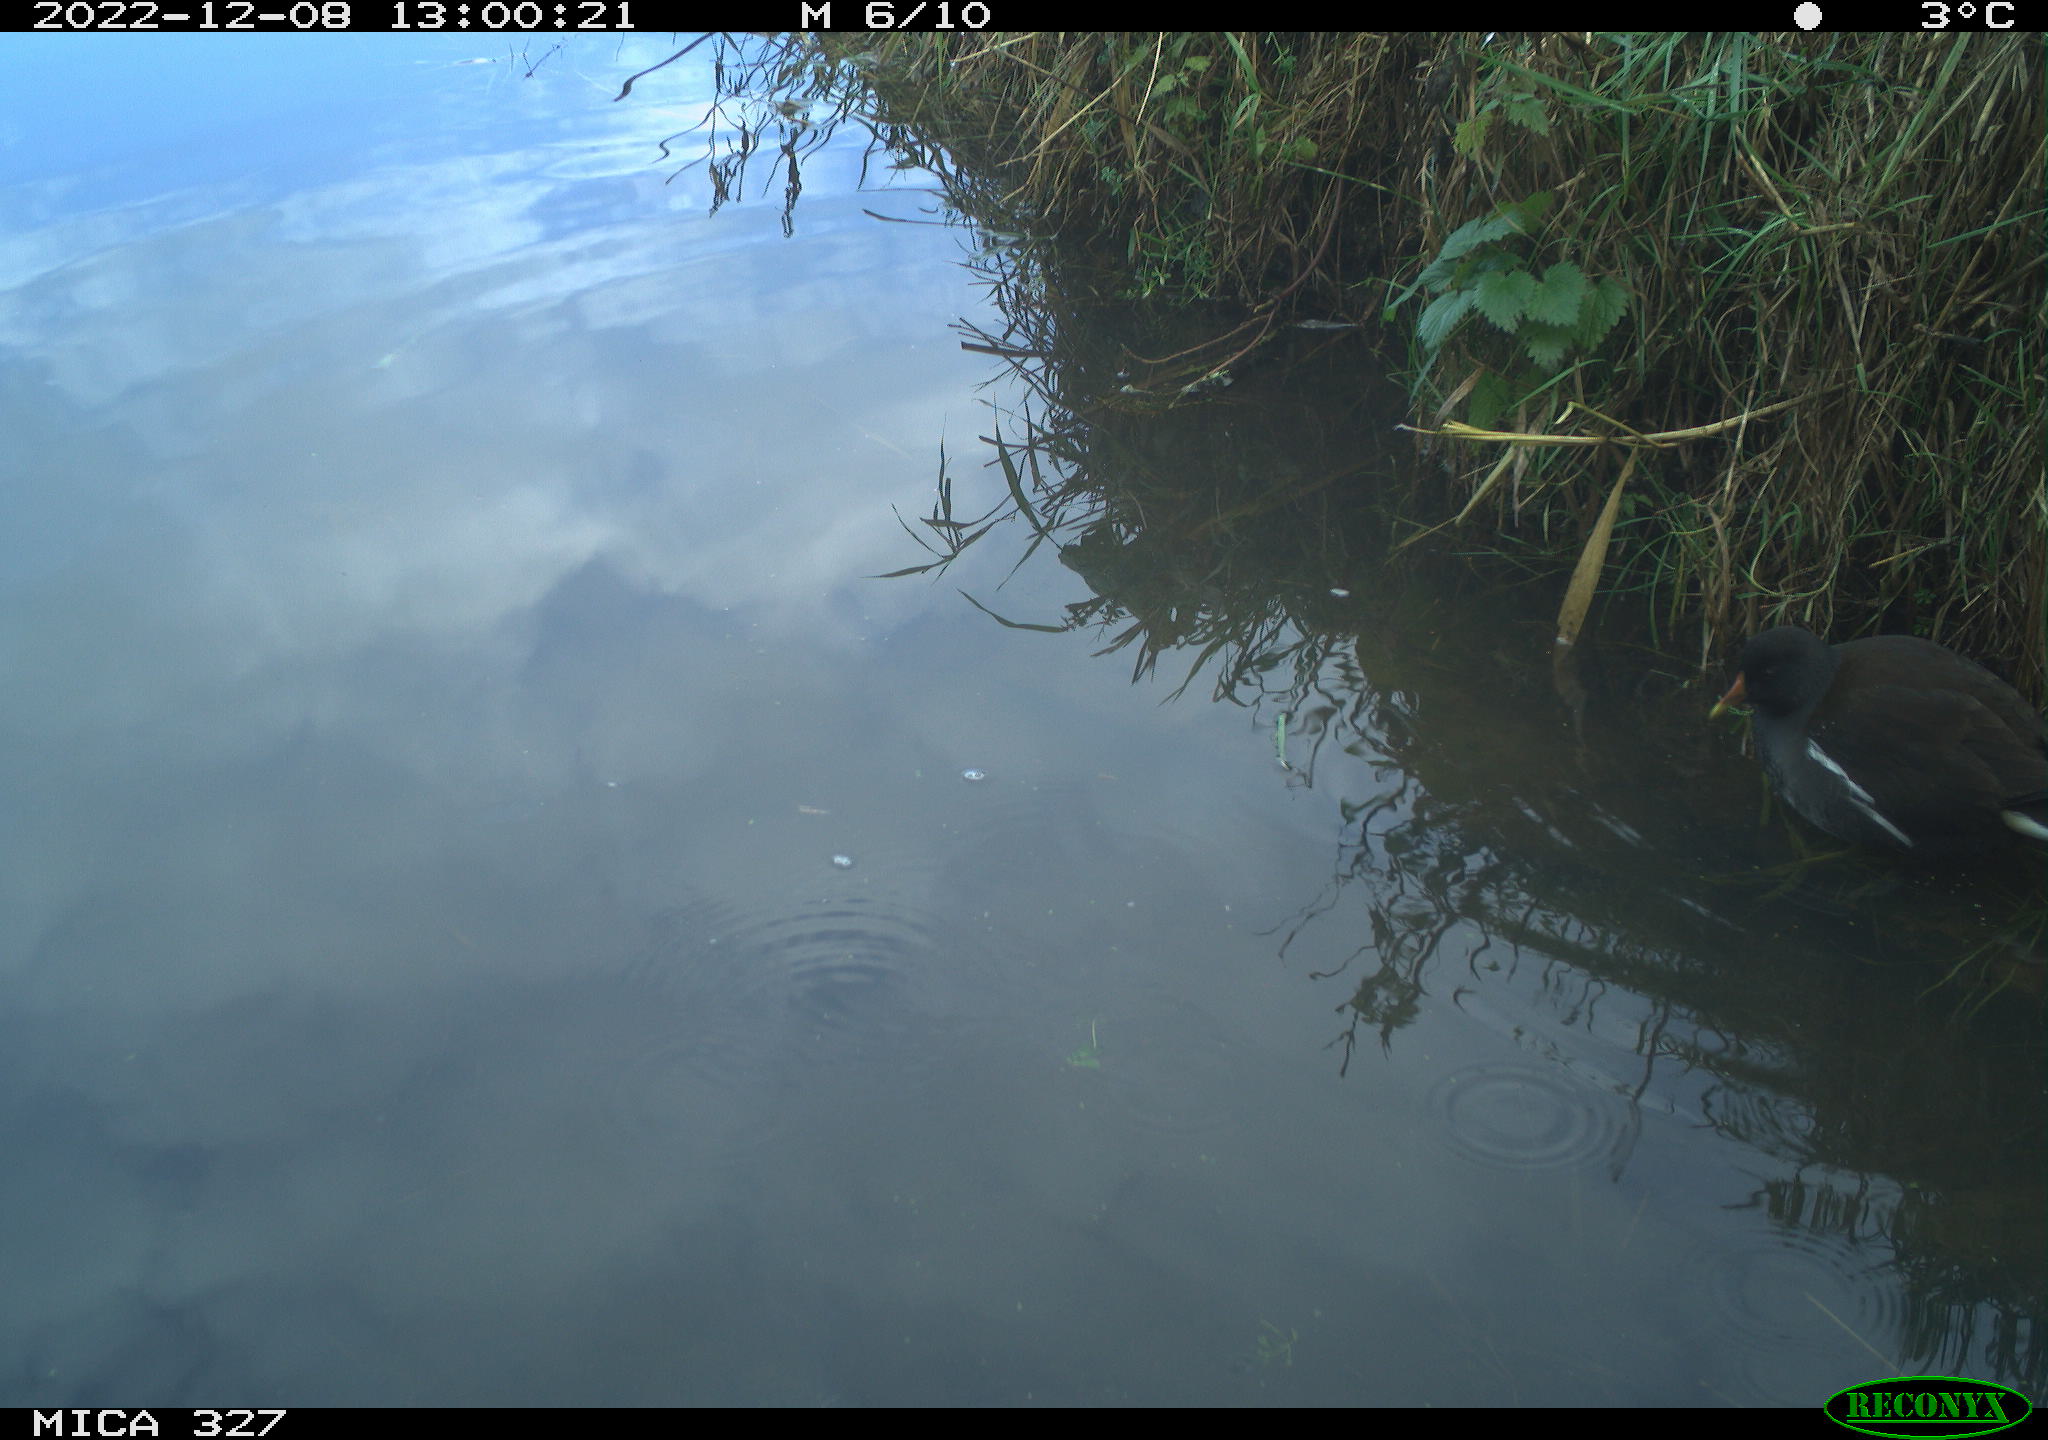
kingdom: Animalia
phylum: Chordata
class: Aves
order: Gruiformes
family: Rallidae
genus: Gallinula
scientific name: Gallinula chloropus
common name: Common moorhen
